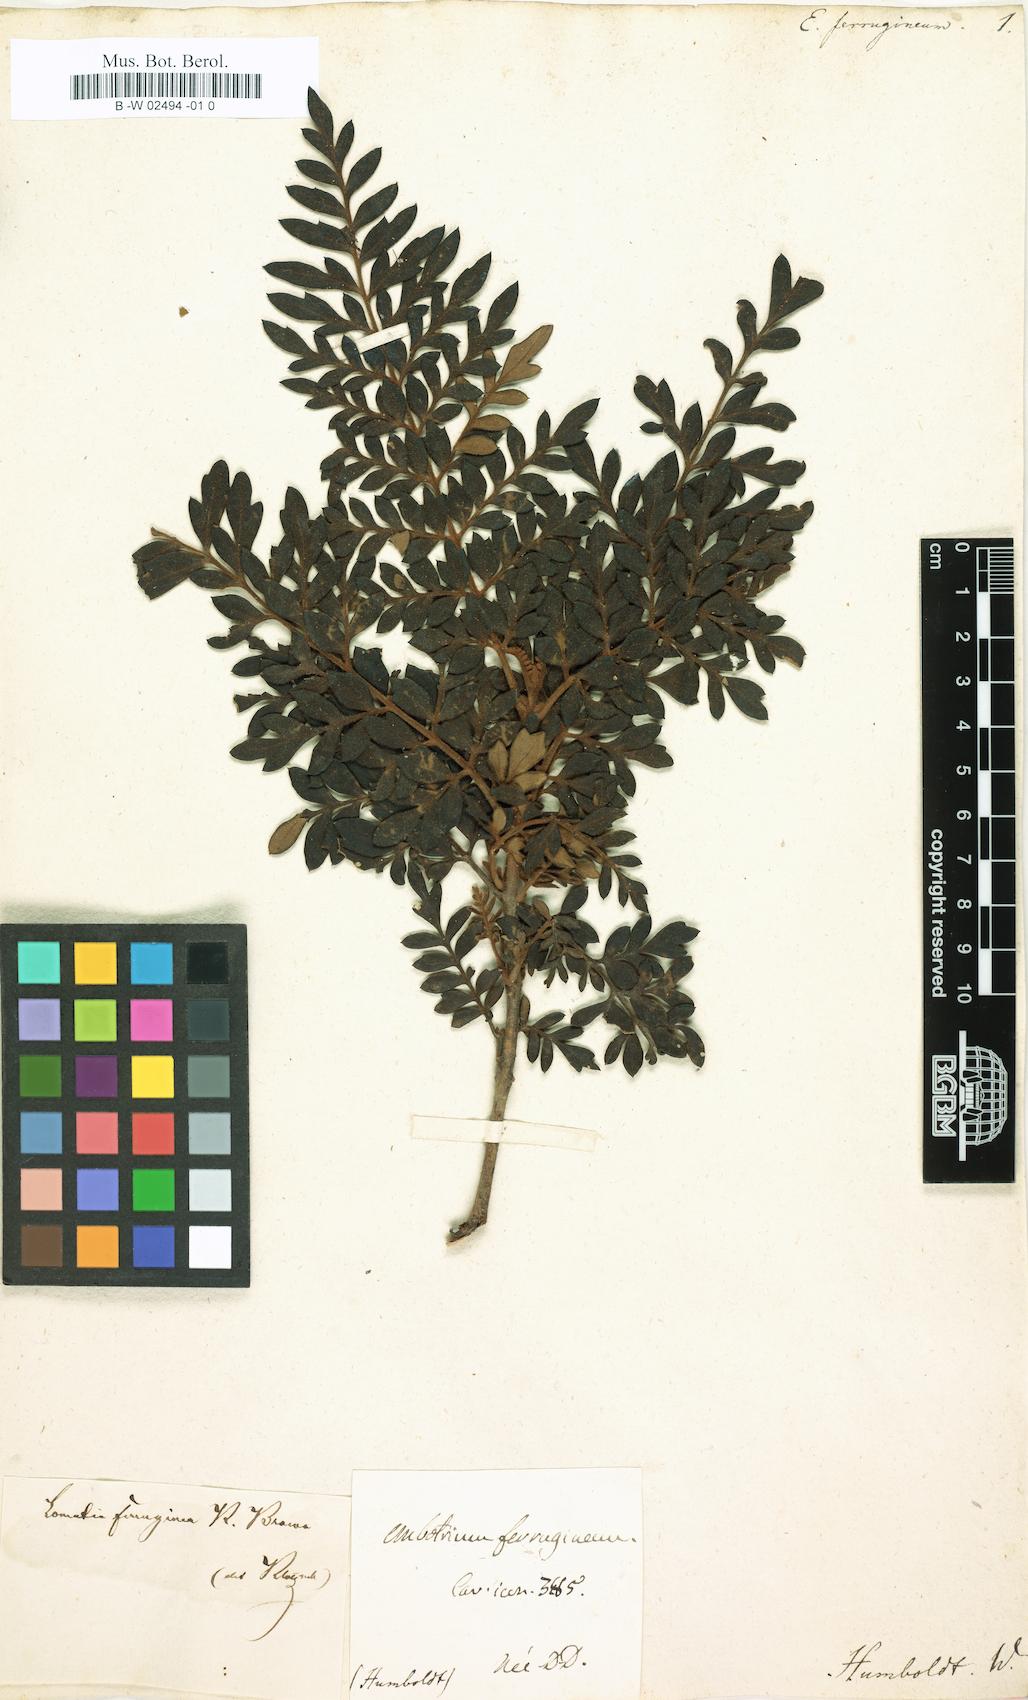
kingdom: Plantae
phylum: Tracheophyta
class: Magnoliopsida
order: Proteales
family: Proteaceae
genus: Embothrium
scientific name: Embothrium
